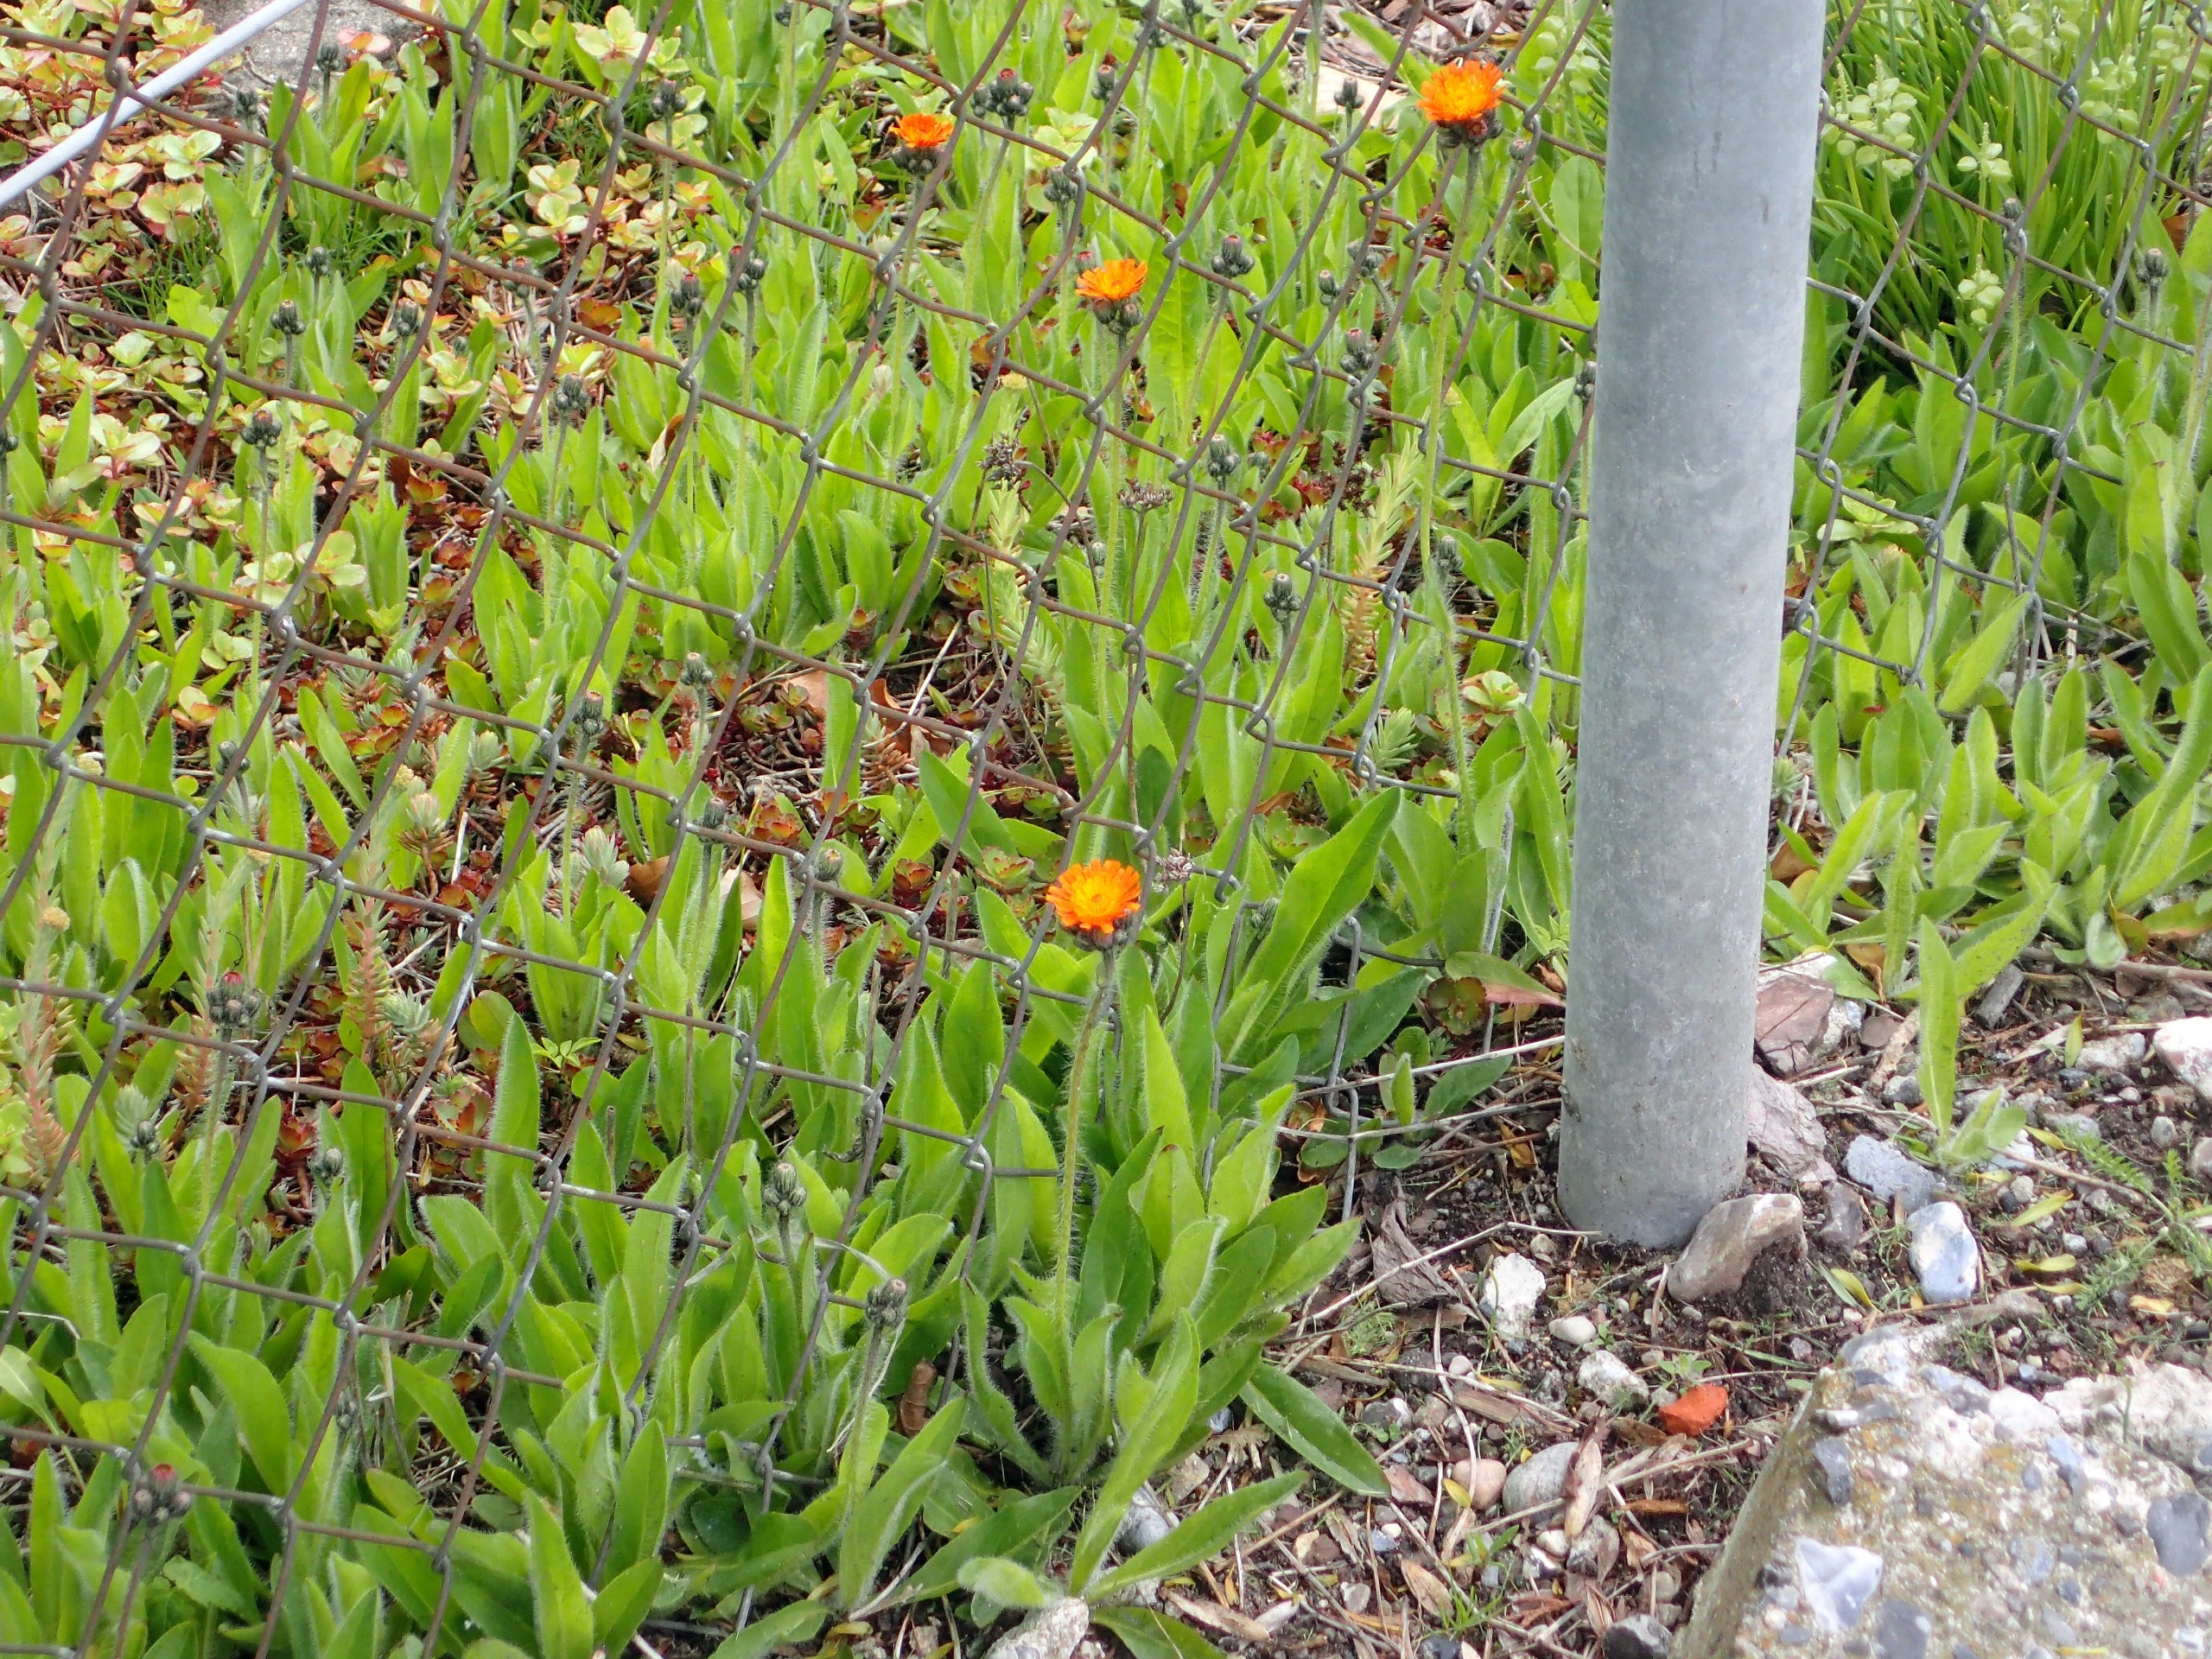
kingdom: Plantae
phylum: Tracheophyta
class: Magnoliopsida
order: Asterales
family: Asteraceae
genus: Pilosella
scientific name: Pilosella aurantiaca
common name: Pomerans-høgeurt
